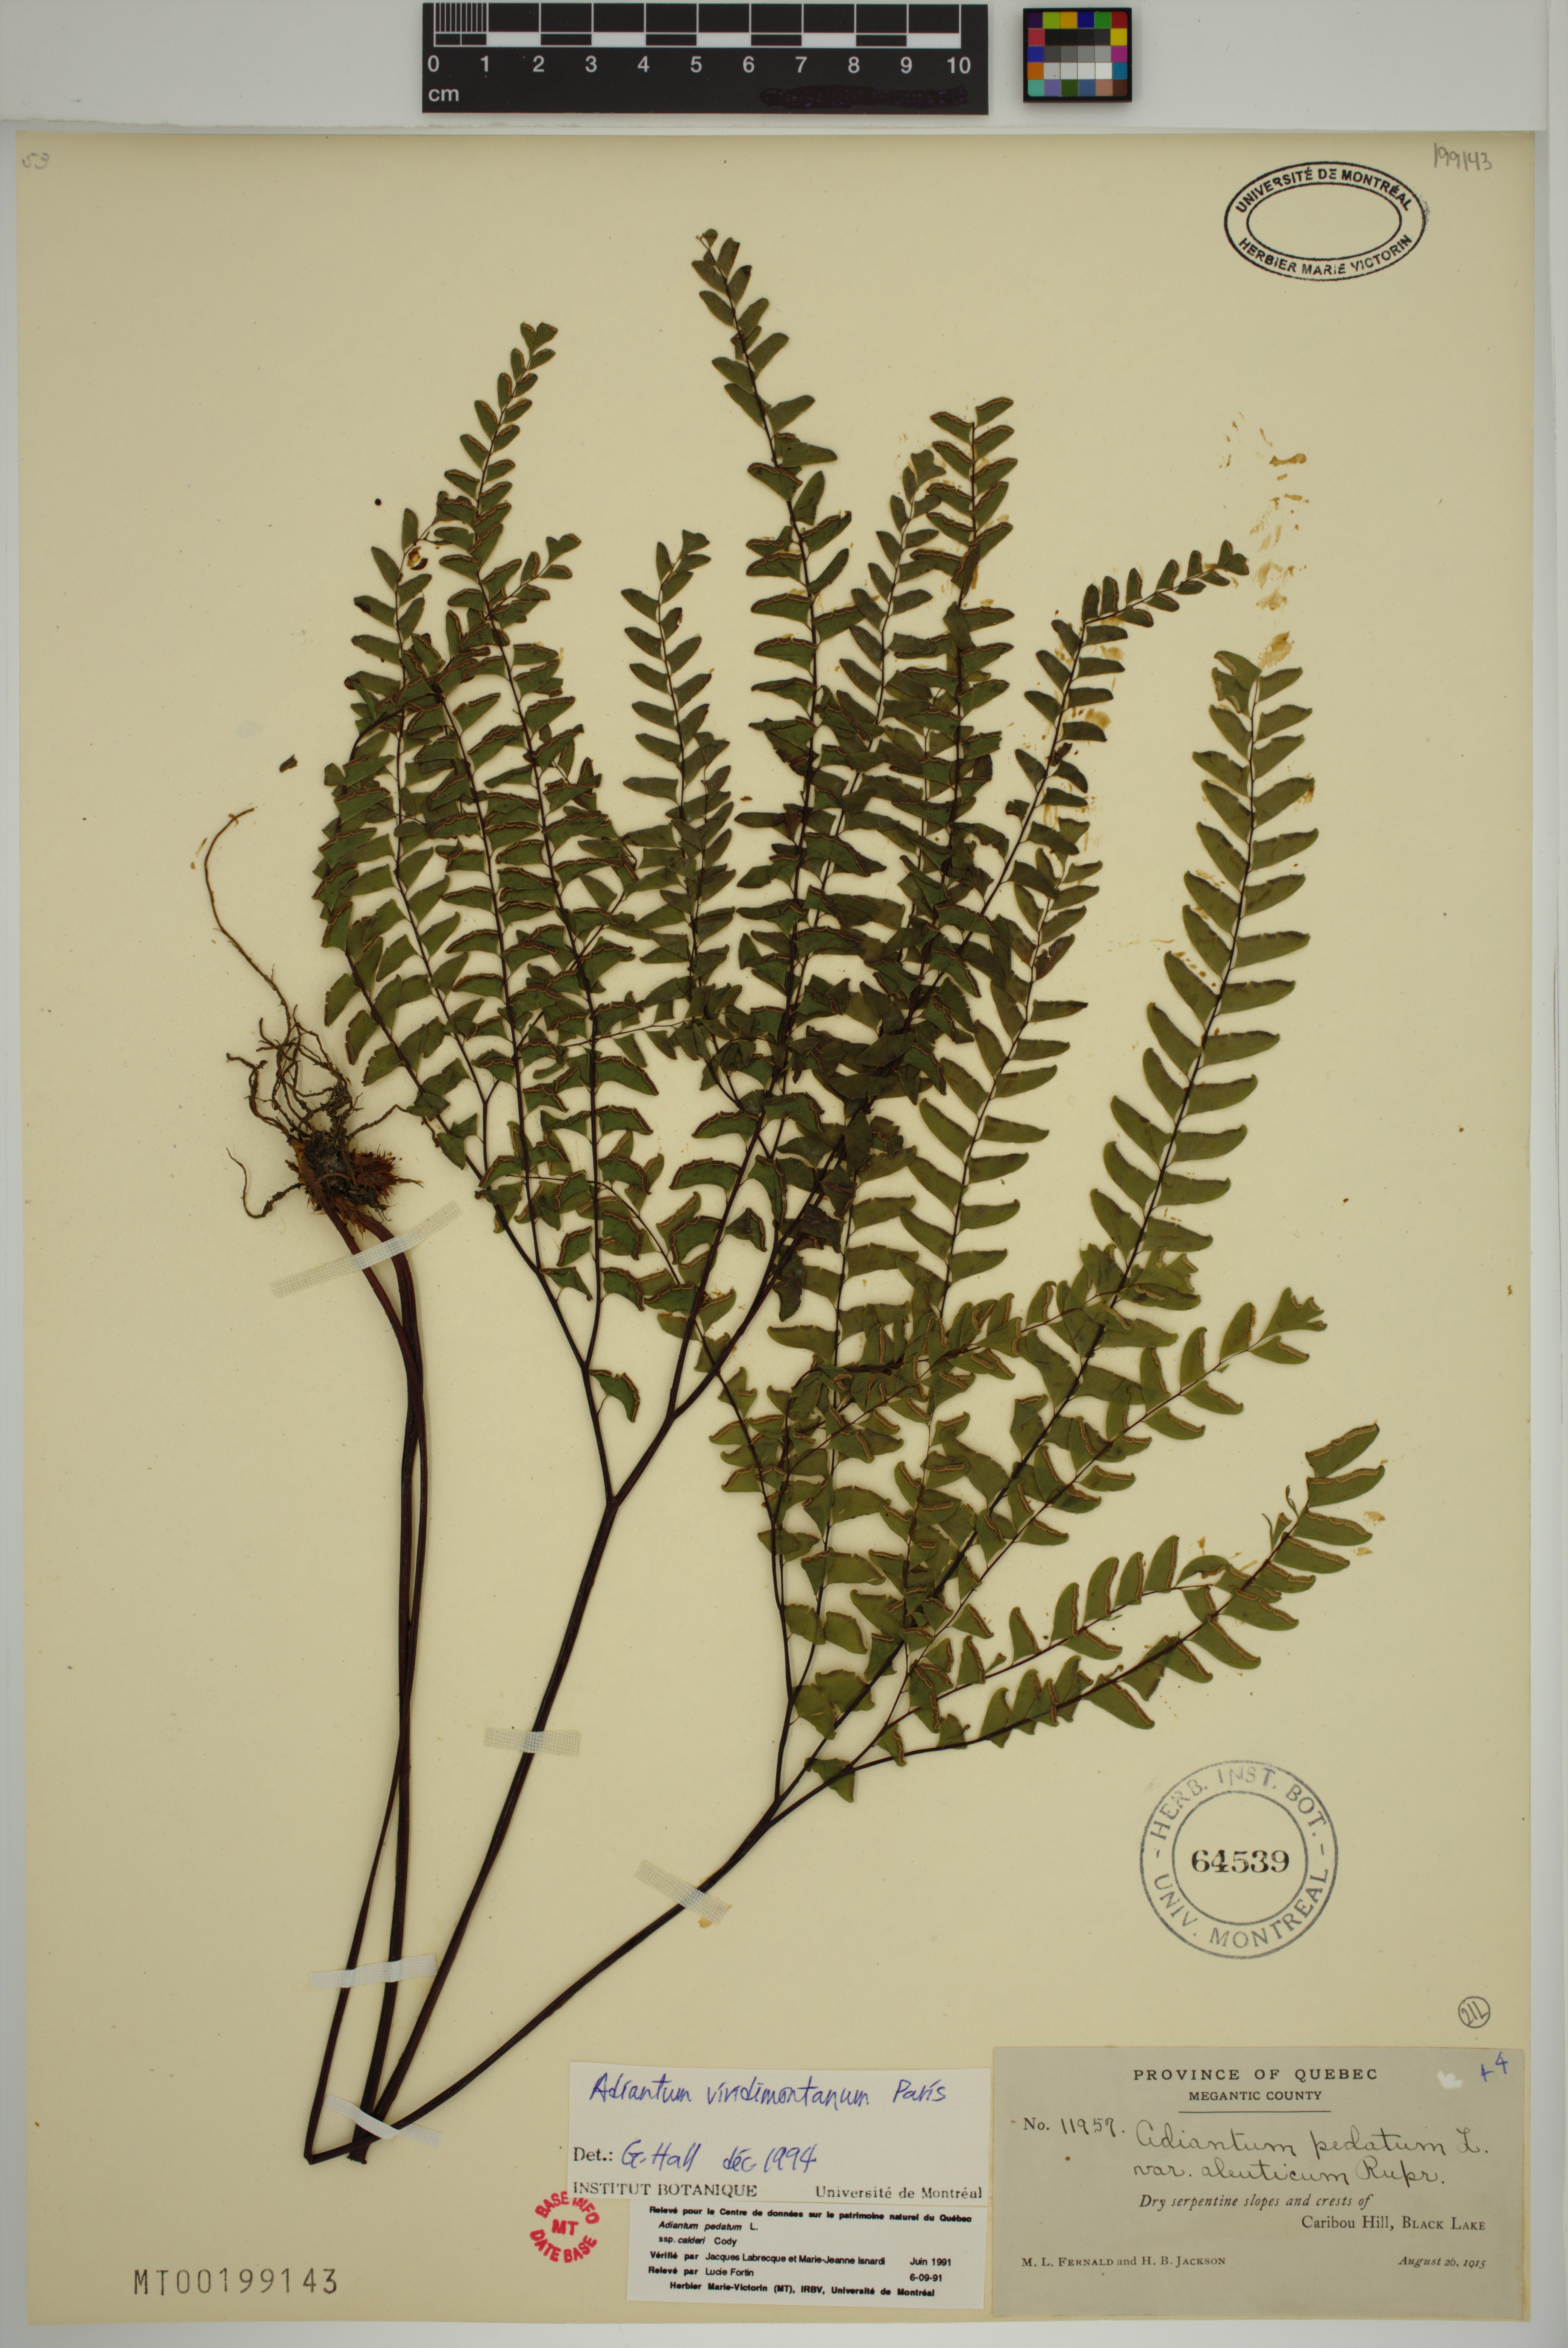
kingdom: Plantae
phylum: Tracheophyta
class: Polypodiopsida
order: Polypodiales
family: Pteridaceae
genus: Adiantum
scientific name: Adiantum viridimontanum
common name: Green mountain maidenhair
